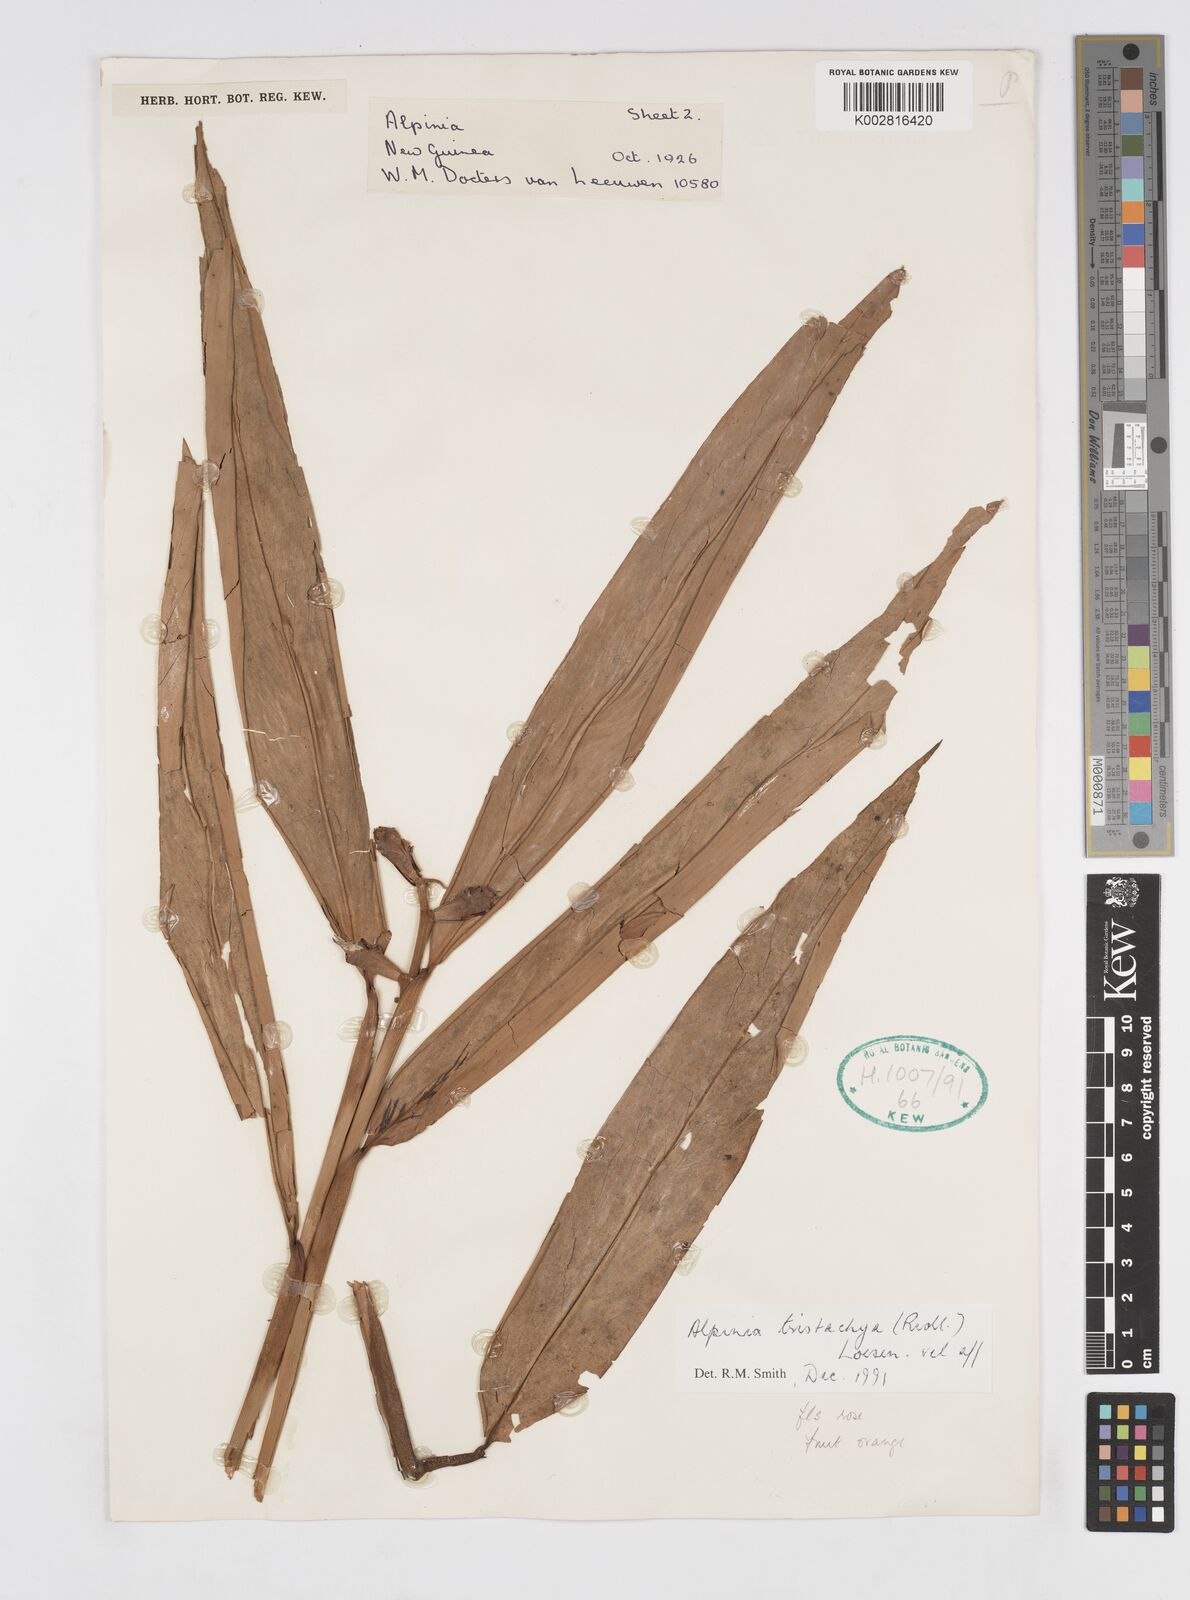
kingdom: Plantae
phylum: Tracheophyta
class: Liliopsida
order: Zingiberales
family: Zingiberaceae
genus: Alpinia
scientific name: Alpinia tristachya
